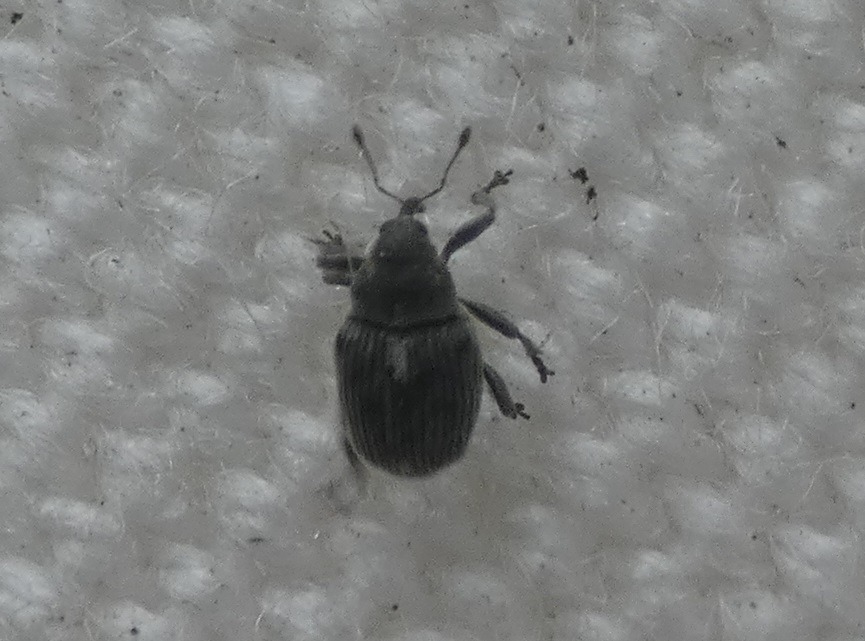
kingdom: Animalia
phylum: Arthropoda
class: Insecta
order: Coleoptera
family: Curculionidae
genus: Ceutorhynchus
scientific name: Ceutorhynchus obstrictus
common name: Blygrå rapssnudebille
